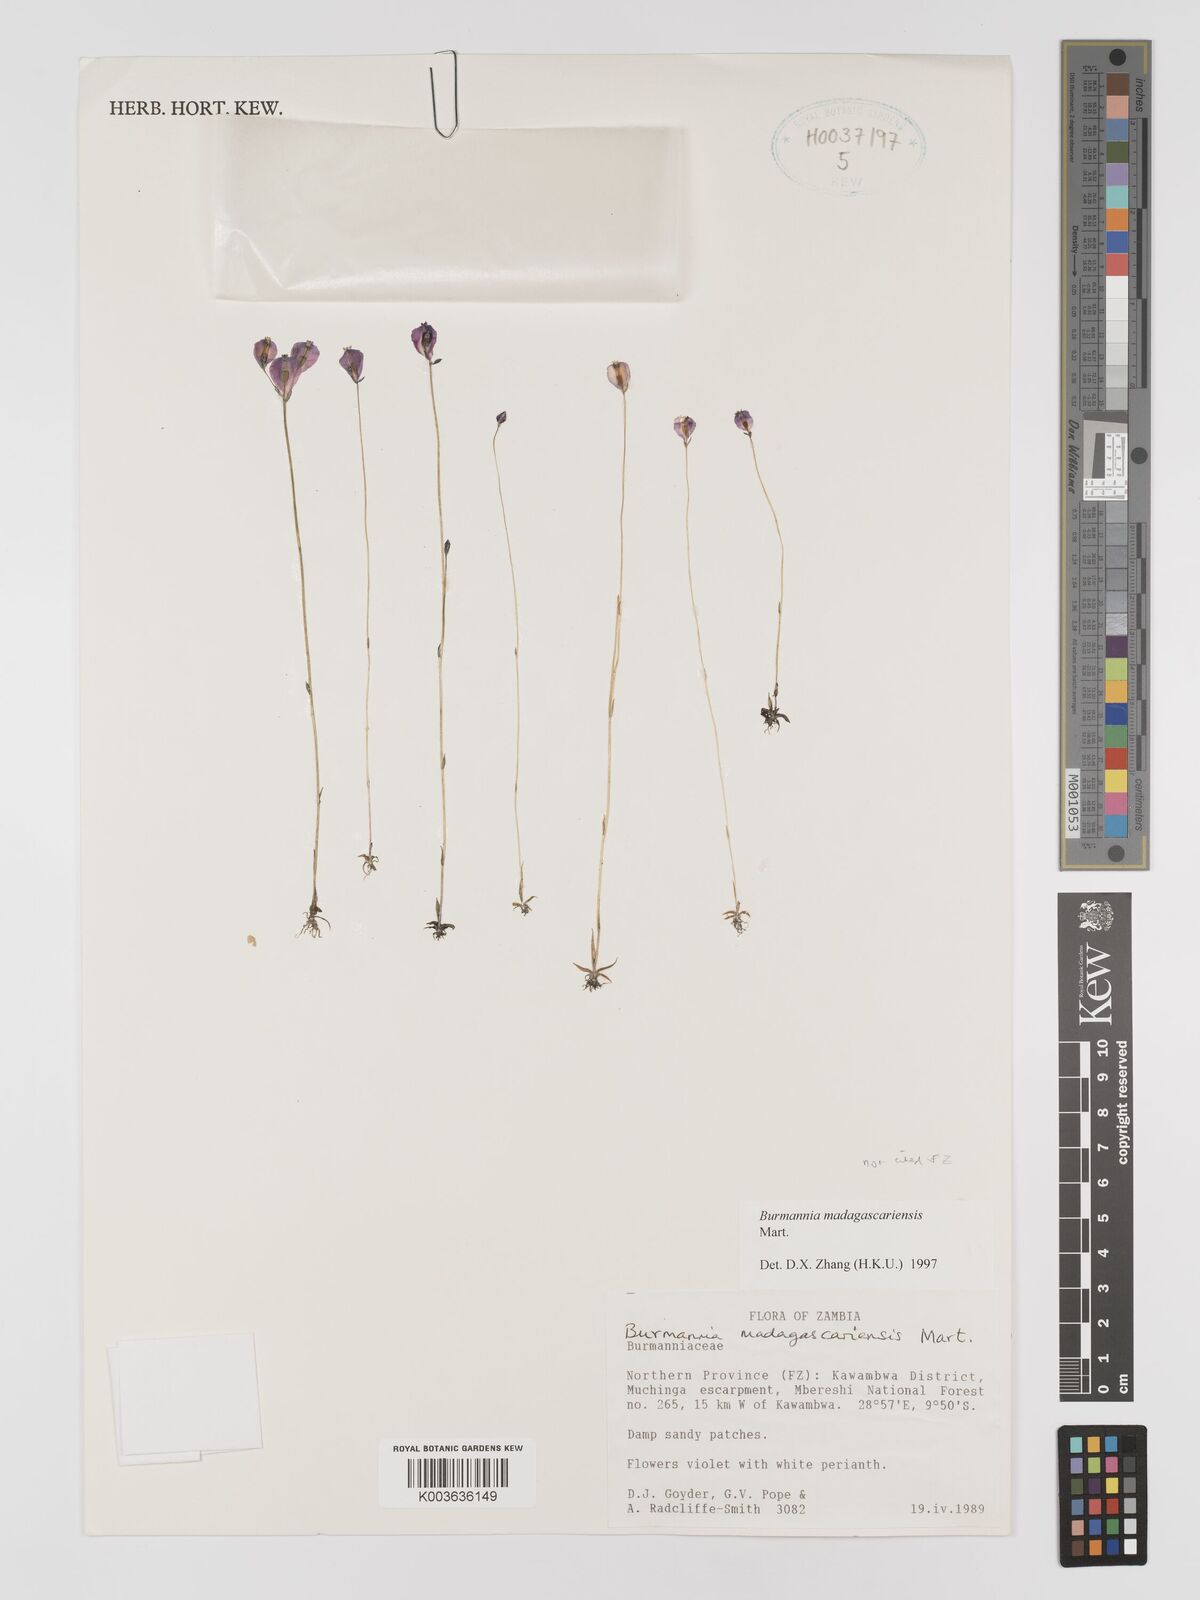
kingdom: Plantae
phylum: Tracheophyta
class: Liliopsida
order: Dioscoreales
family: Burmanniaceae
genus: Burmannia
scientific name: Burmannia madagascariensis
